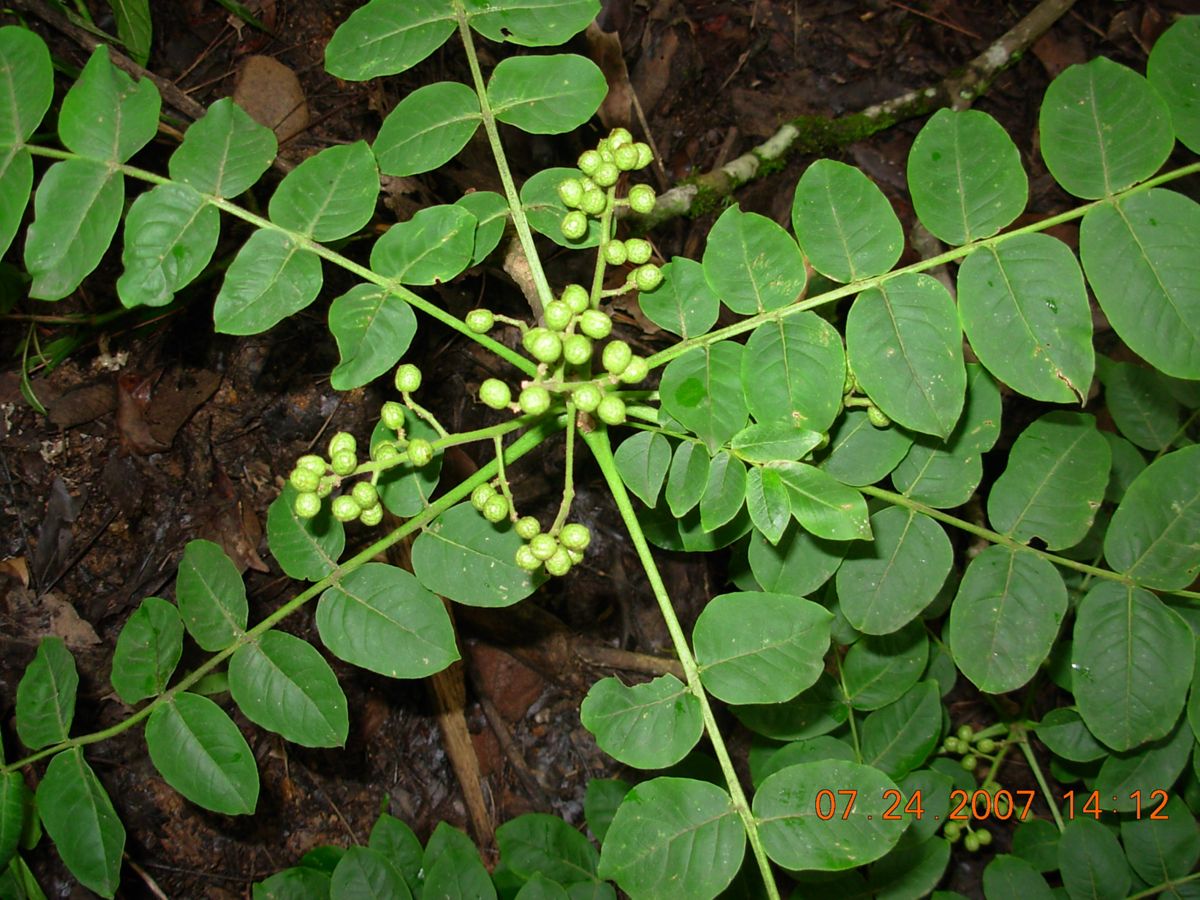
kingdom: Plantae
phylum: Tracheophyta
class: Magnoliopsida
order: Sapindales
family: Rutaceae
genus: Zanthoxylum
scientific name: Zanthoxylum mollissimum
